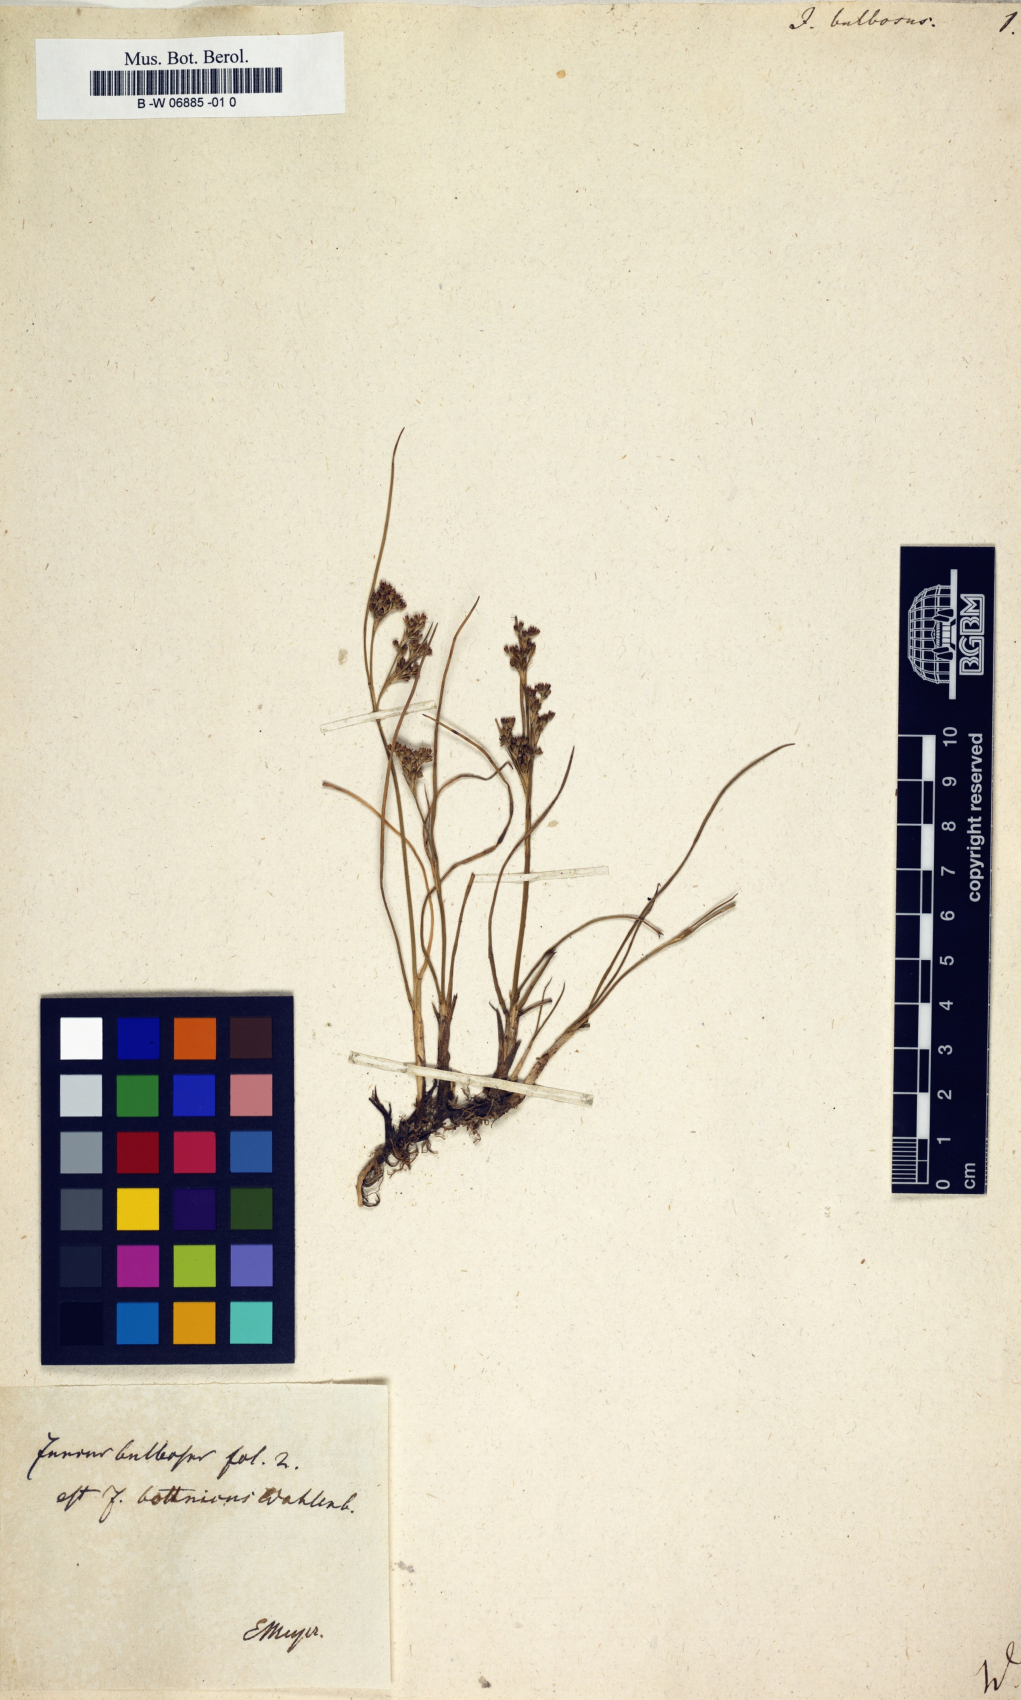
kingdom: Plantae
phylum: Tracheophyta
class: Liliopsida
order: Poales
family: Juncaceae
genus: Juncus
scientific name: Juncus bulbosus
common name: Bulbous rush
